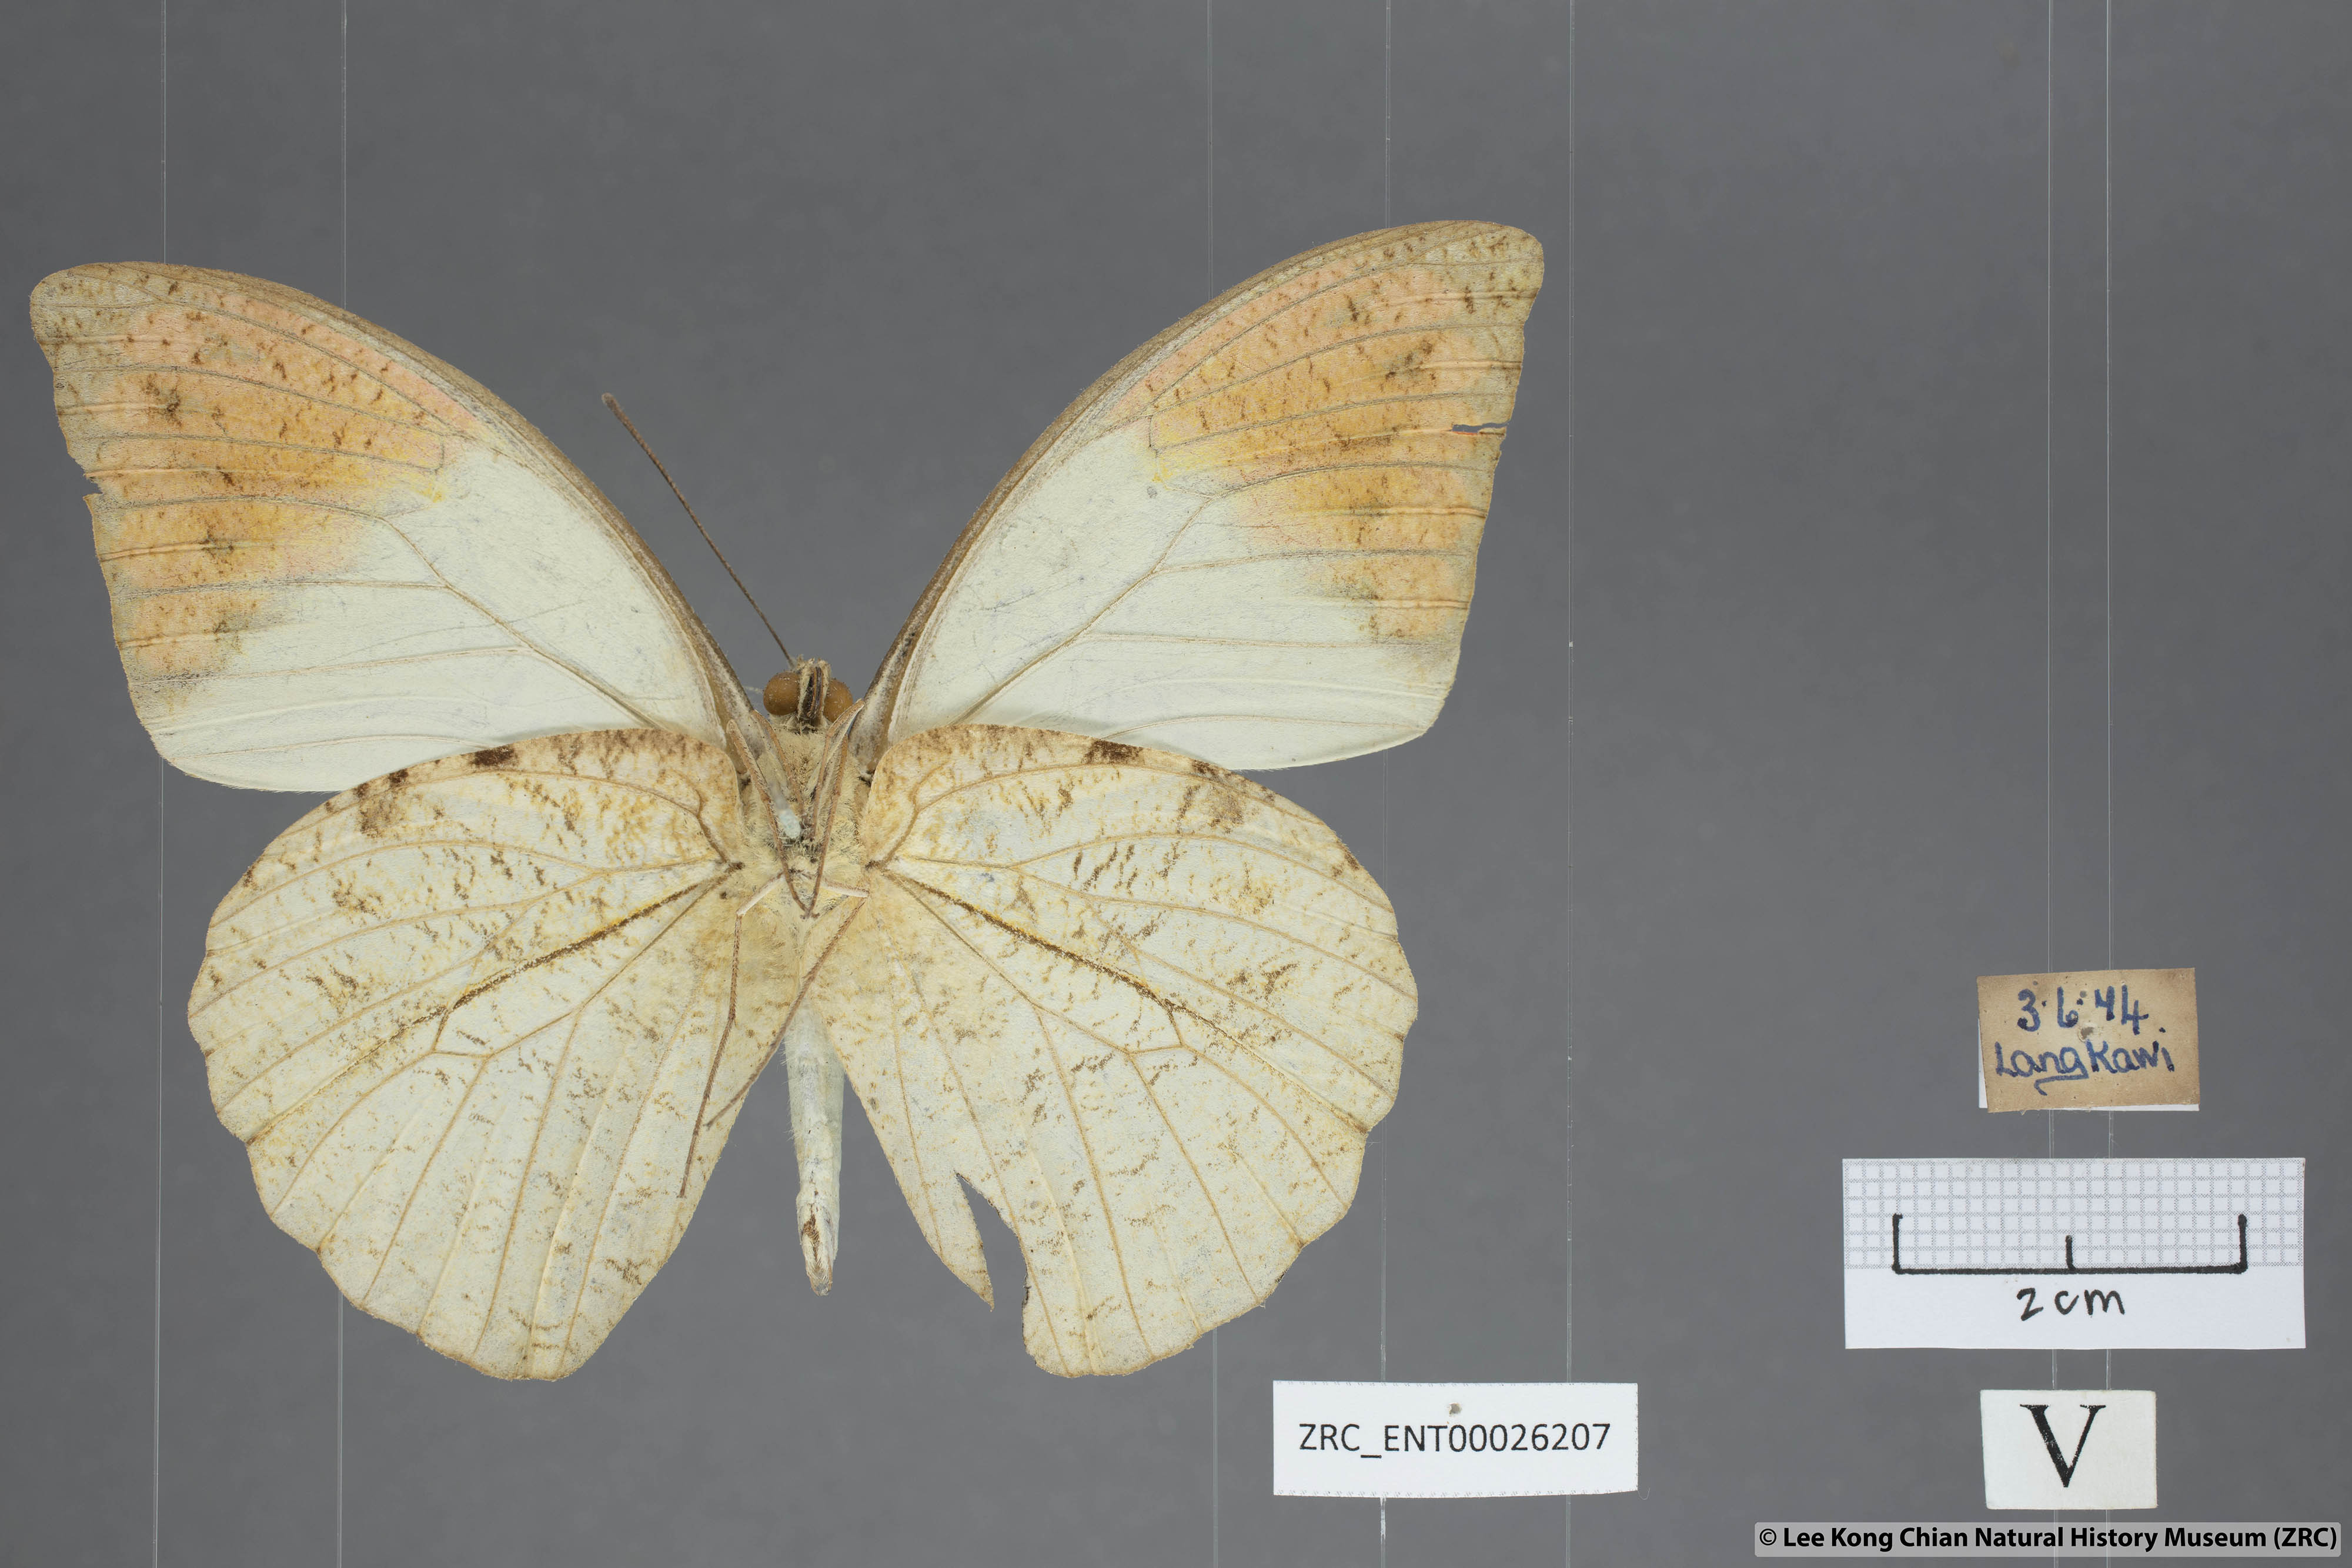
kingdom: Animalia
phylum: Arthropoda
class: Insecta
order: Lepidoptera
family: Pieridae
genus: Hebomoia
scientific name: Hebomoia glaucippe
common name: Great orange tip
